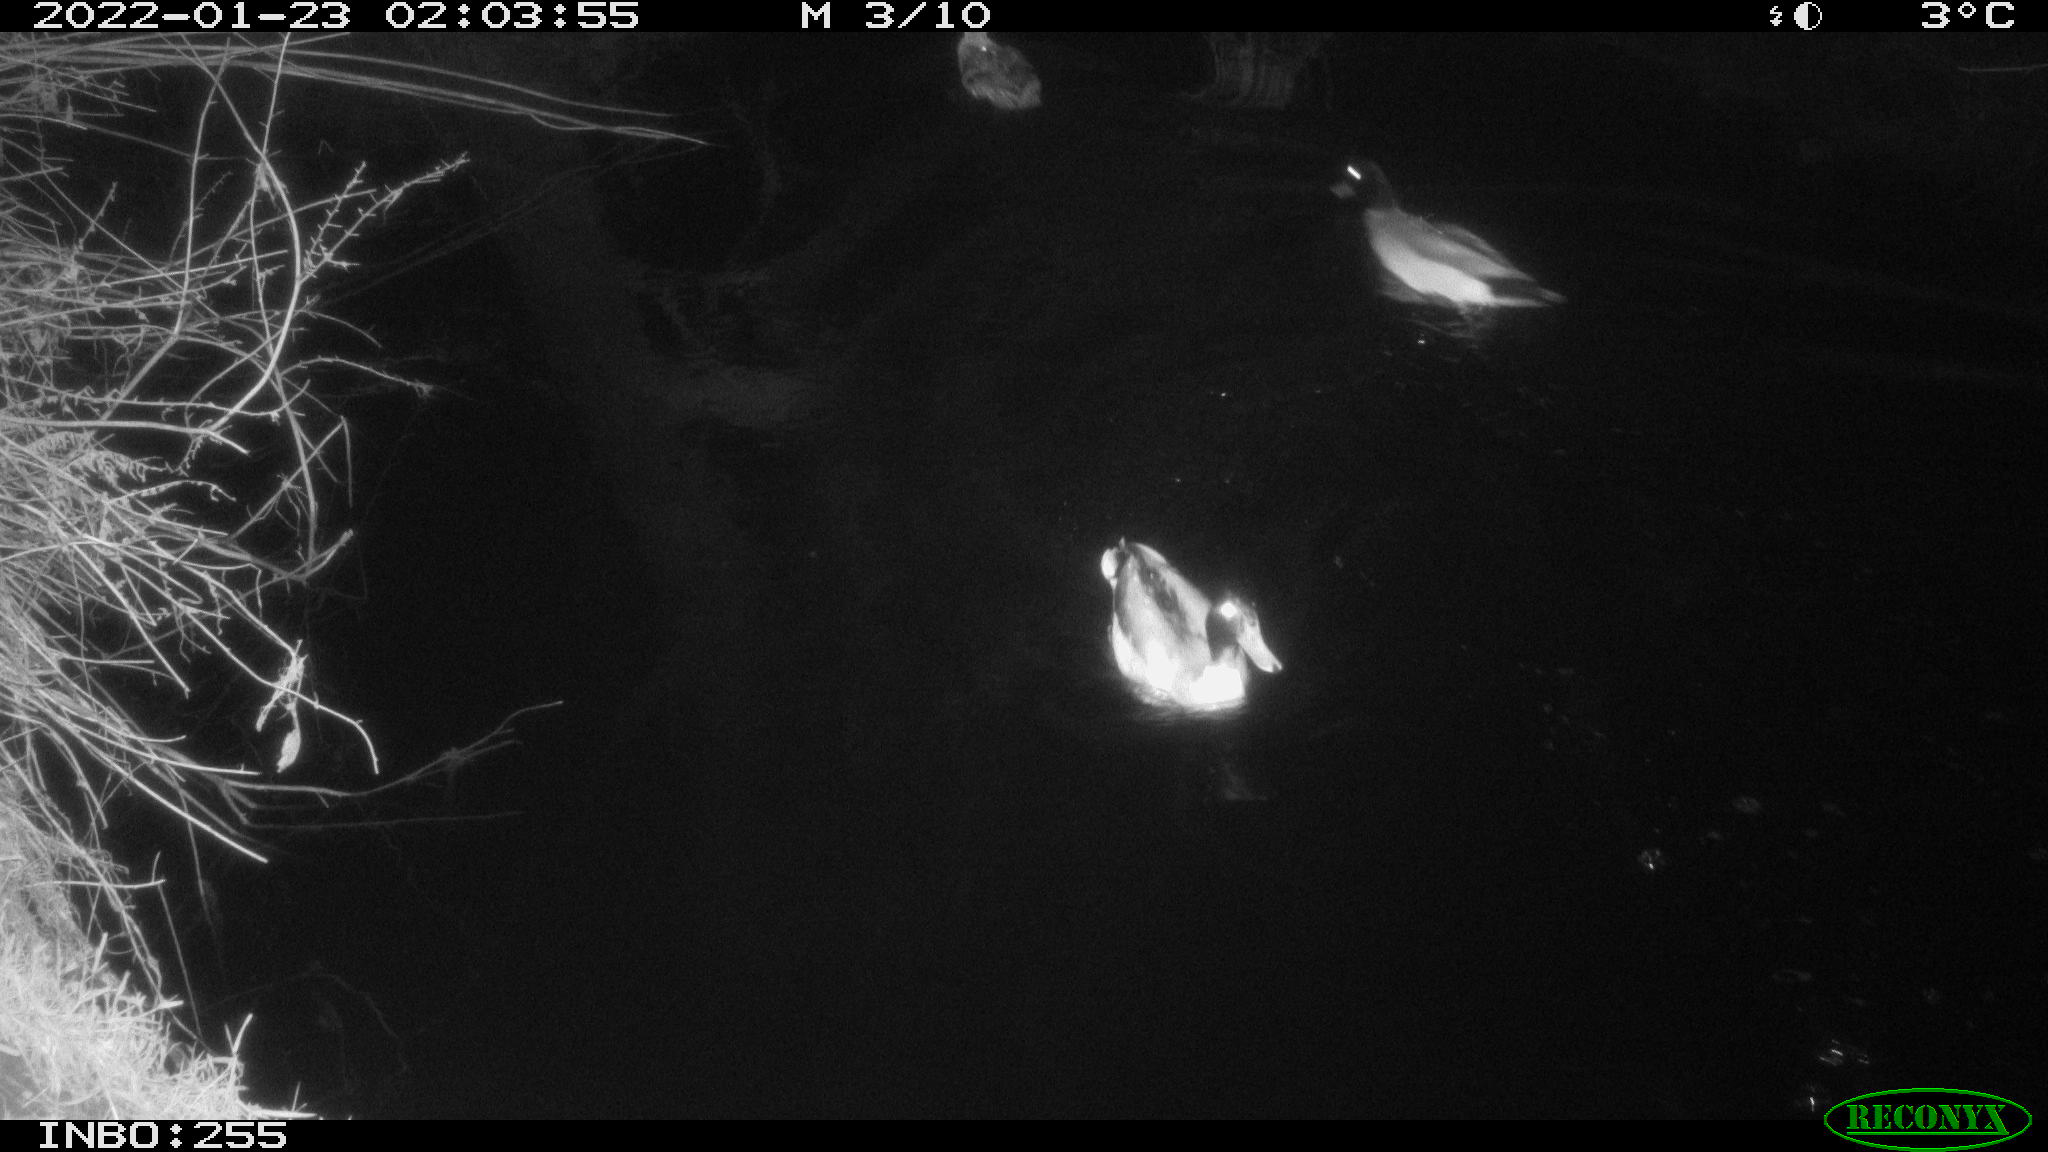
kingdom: Animalia
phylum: Chordata
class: Aves
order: Anseriformes
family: Anatidae
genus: Anas
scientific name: Anas
